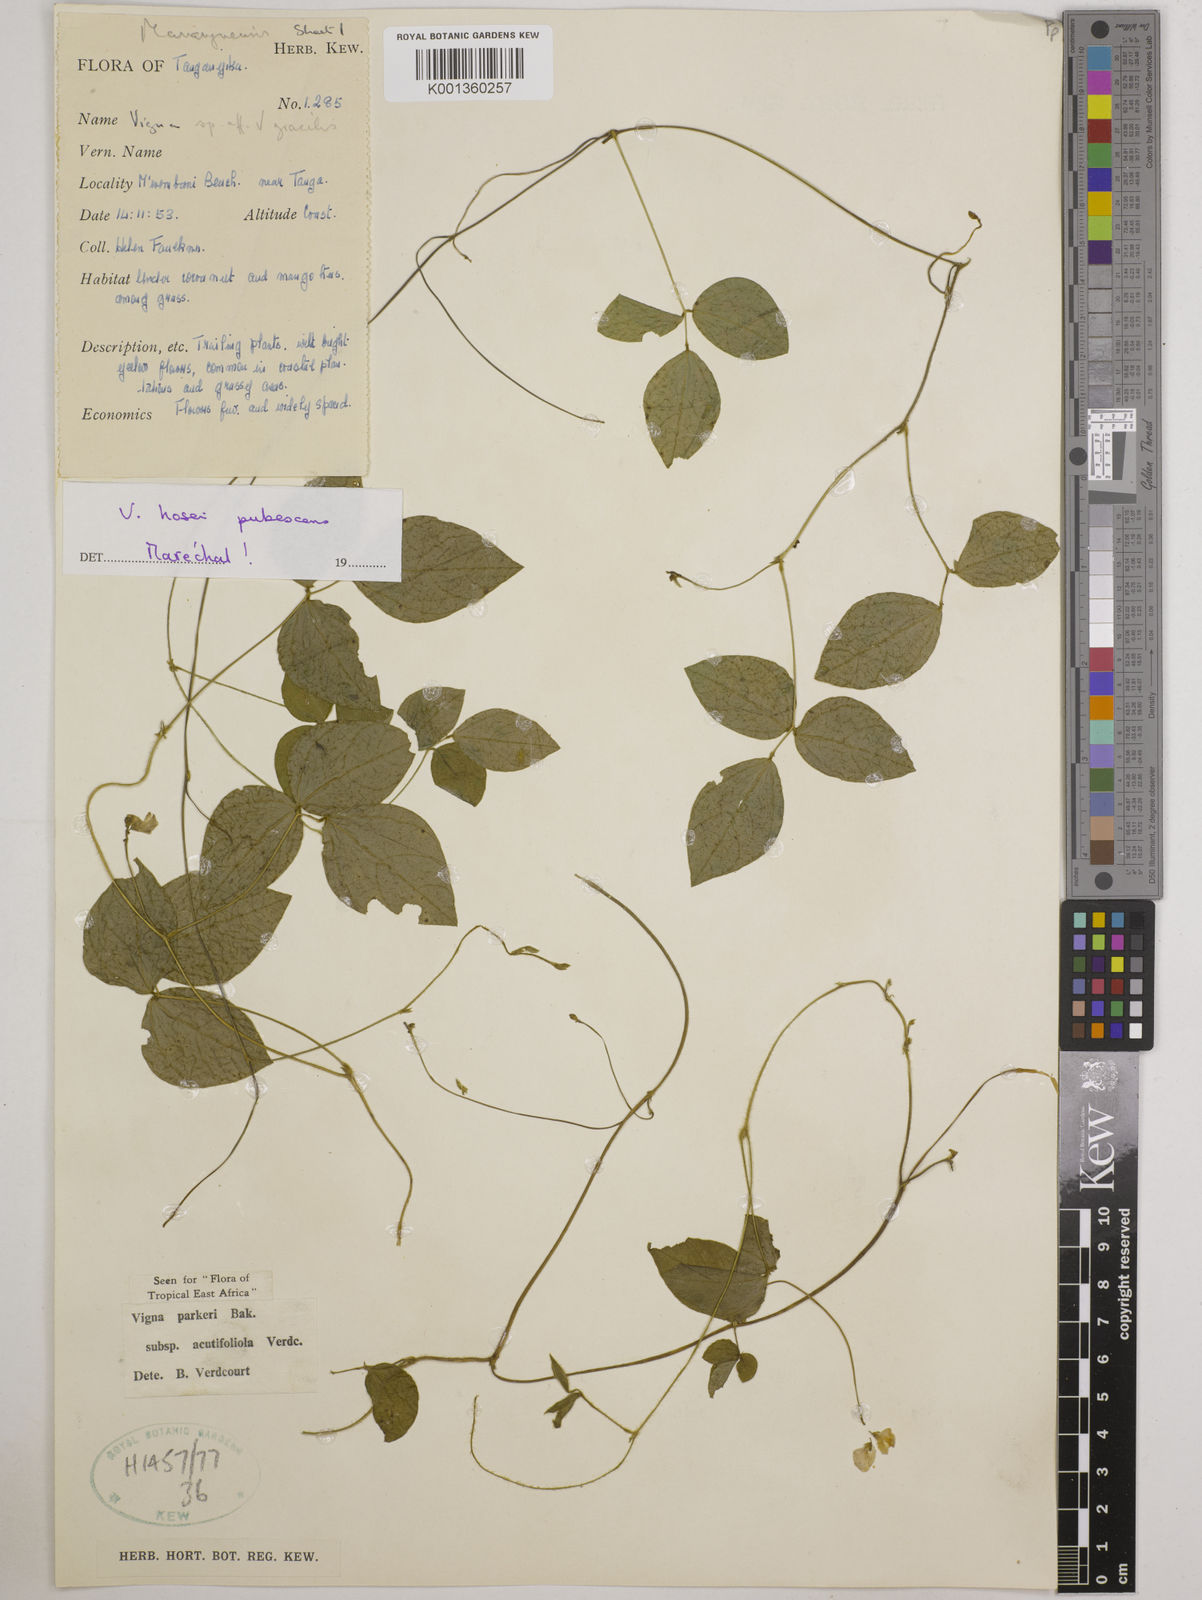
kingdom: Plantae
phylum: Tracheophyta
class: Magnoliopsida
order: Fabales
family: Fabaceae
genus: Vigna
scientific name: Vigna
